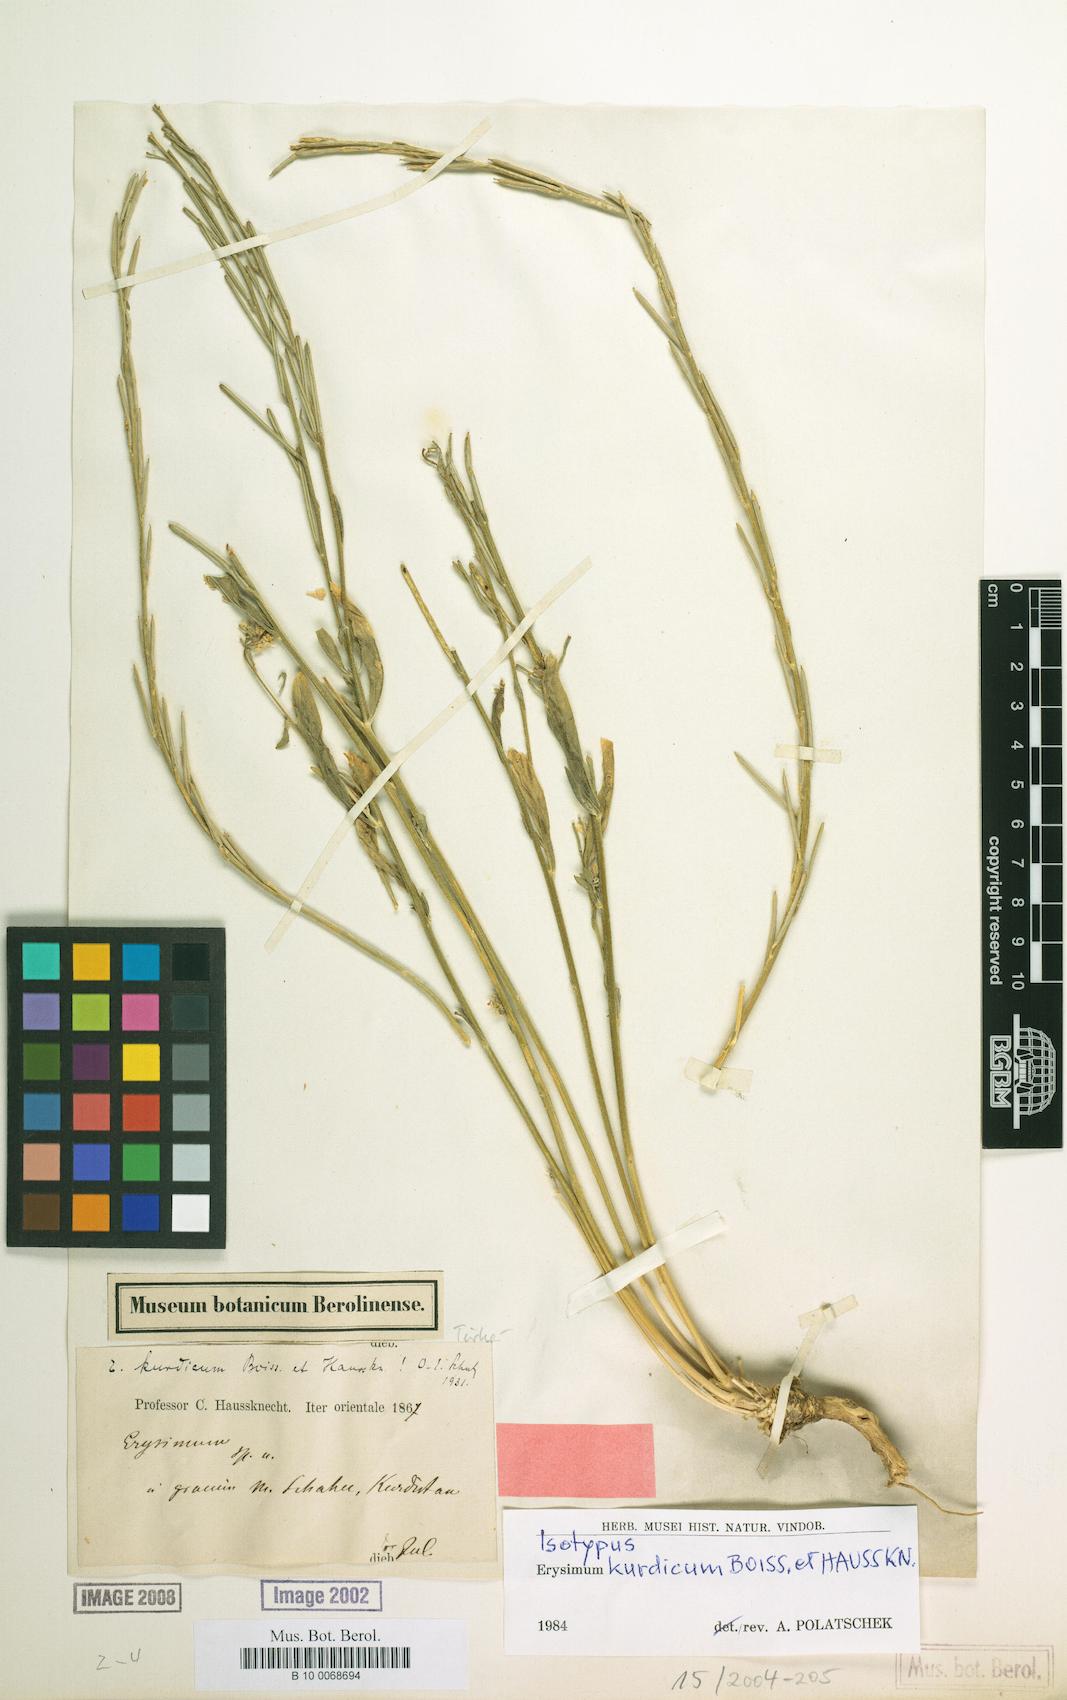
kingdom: Plantae
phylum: Tracheophyta
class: Magnoliopsida
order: Brassicales
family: Brassicaceae
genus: Erysimum
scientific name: Erysimum kurdicum
